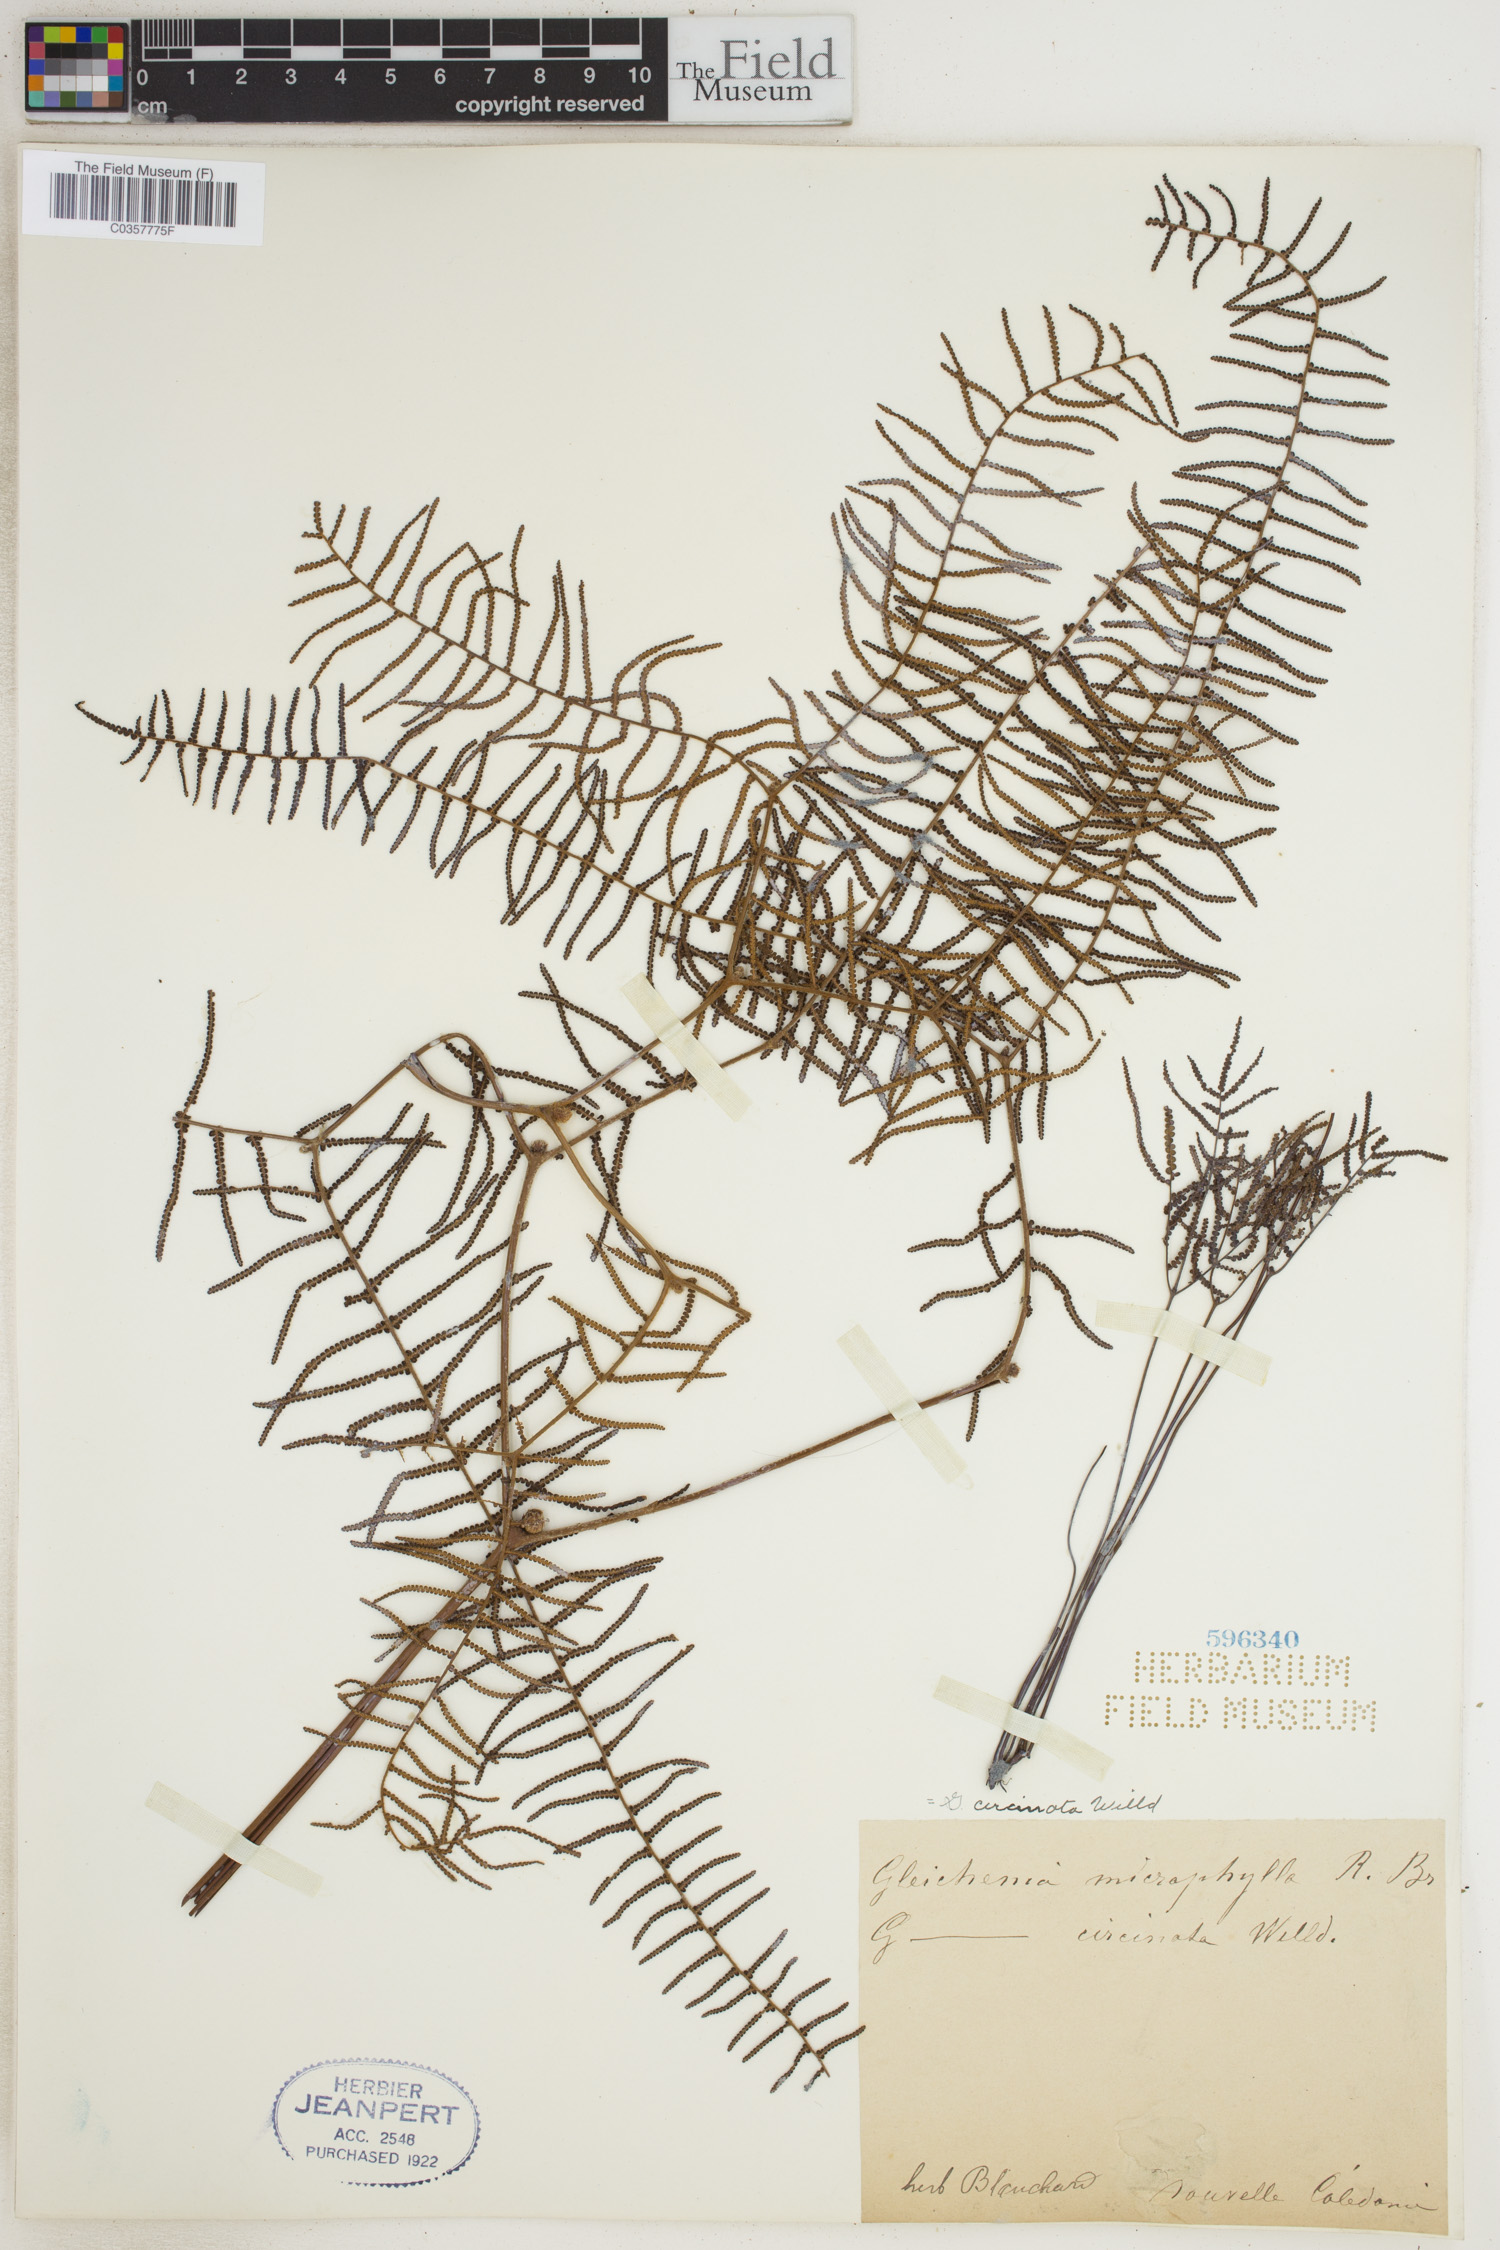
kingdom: Plantae
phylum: Tracheophyta
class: Polypodiopsida
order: Gleicheniales
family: Gleicheniaceae
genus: Gleichenia
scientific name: Gleichenia circinnata
